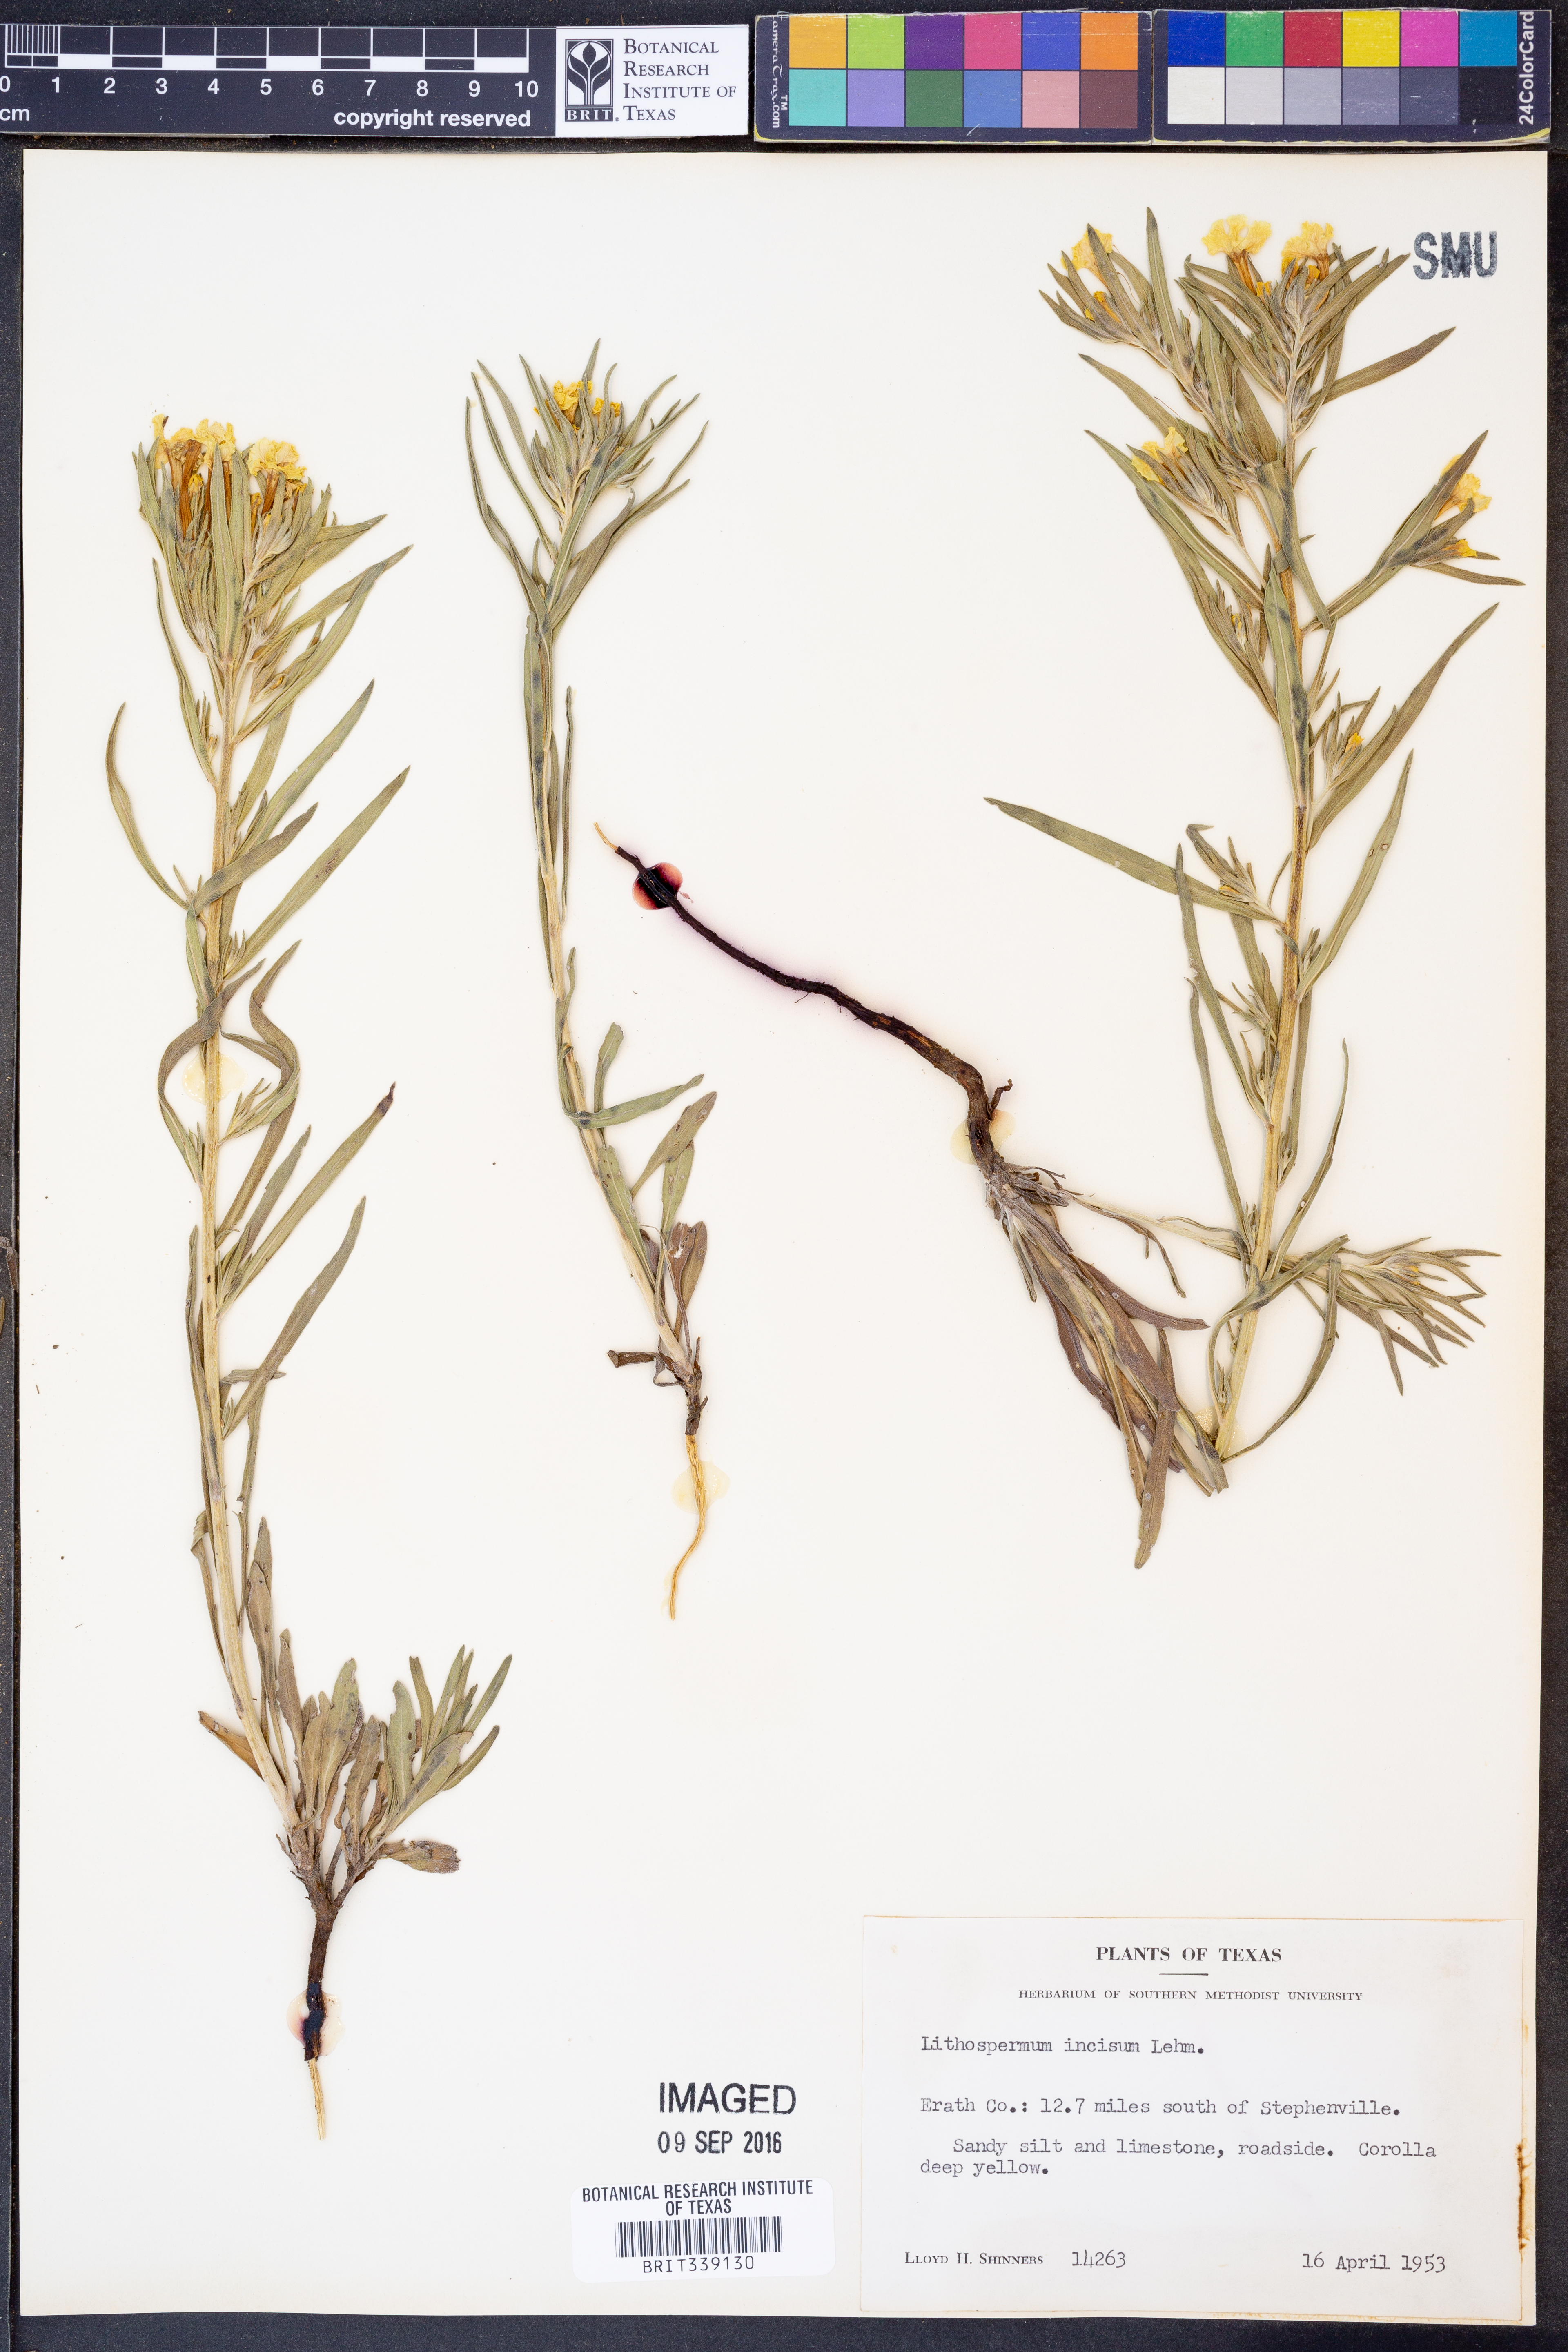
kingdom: Plantae
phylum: Tracheophyta
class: Magnoliopsida
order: Boraginales
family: Boraginaceae
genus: Lithospermum
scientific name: Lithospermum incisum
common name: Fringed gromwell
